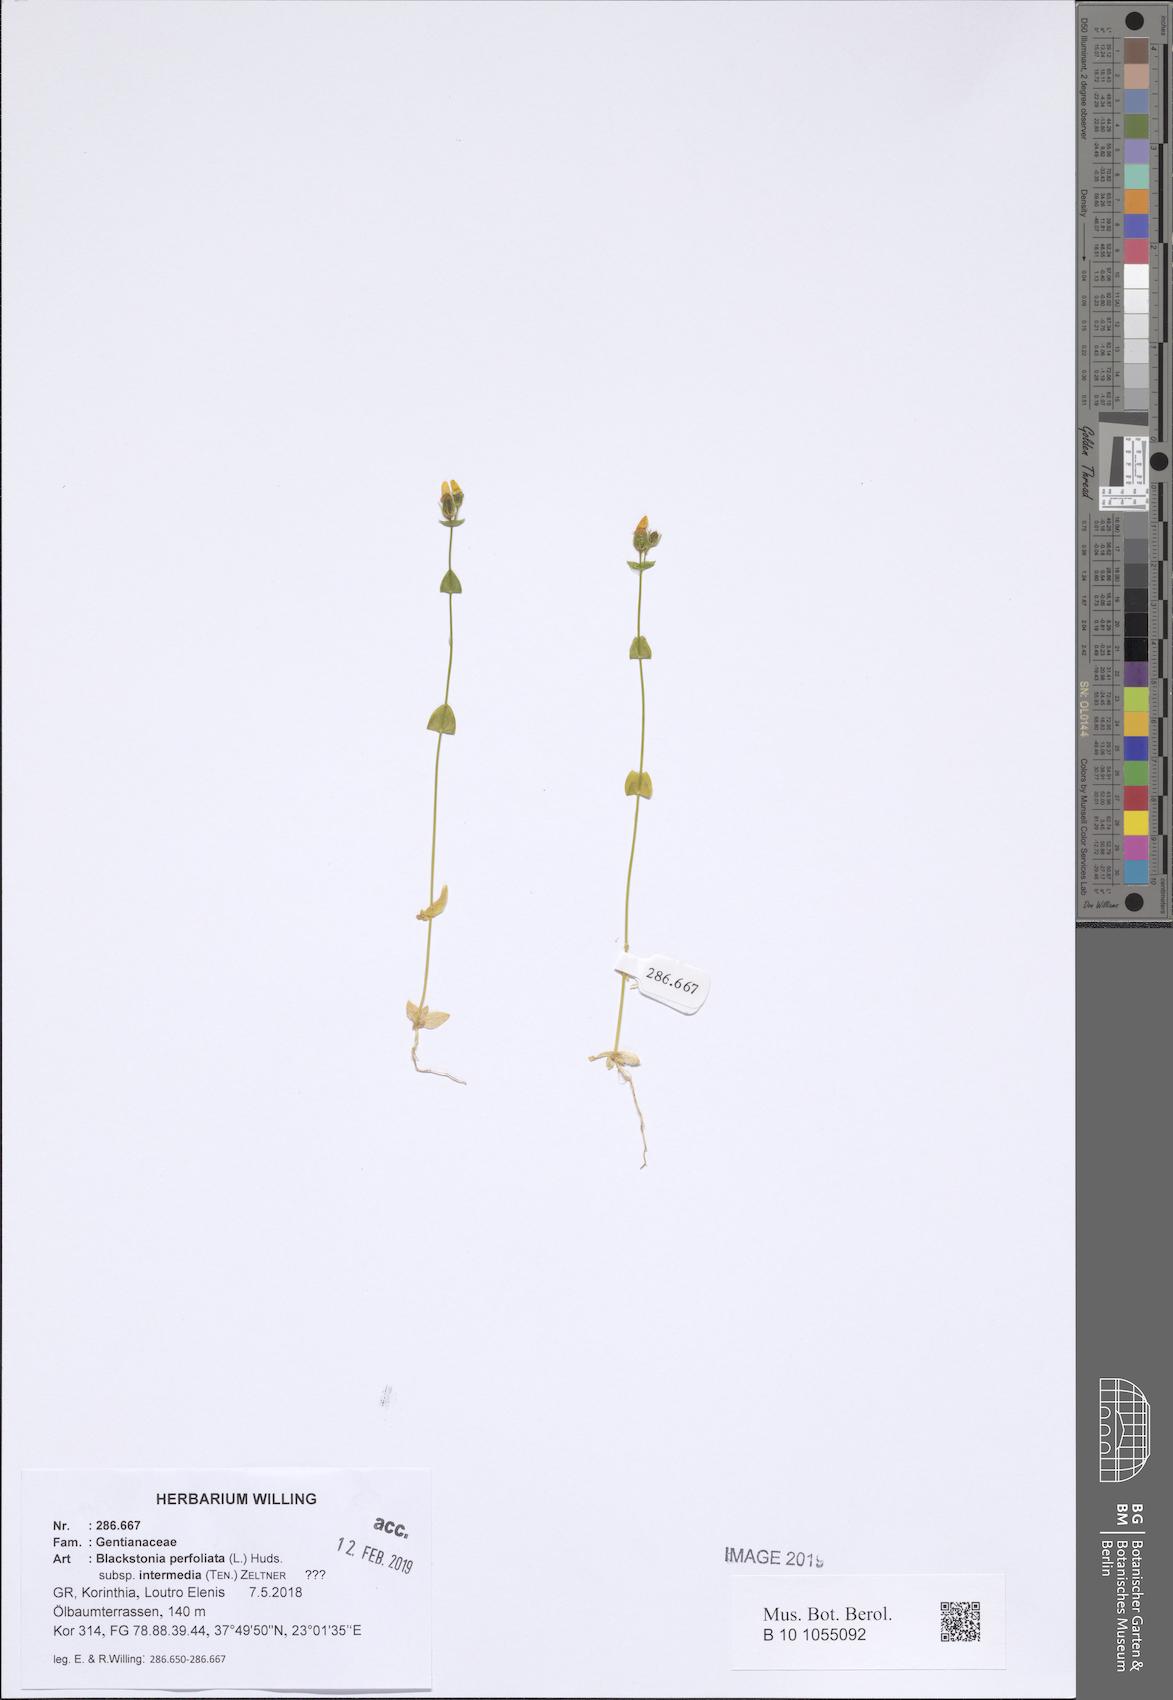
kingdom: Plantae
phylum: Tracheophyta
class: Magnoliopsida
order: Gentianales
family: Gentianaceae
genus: Blackstonia
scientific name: Blackstonia perfoliata
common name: Yellow-wort
